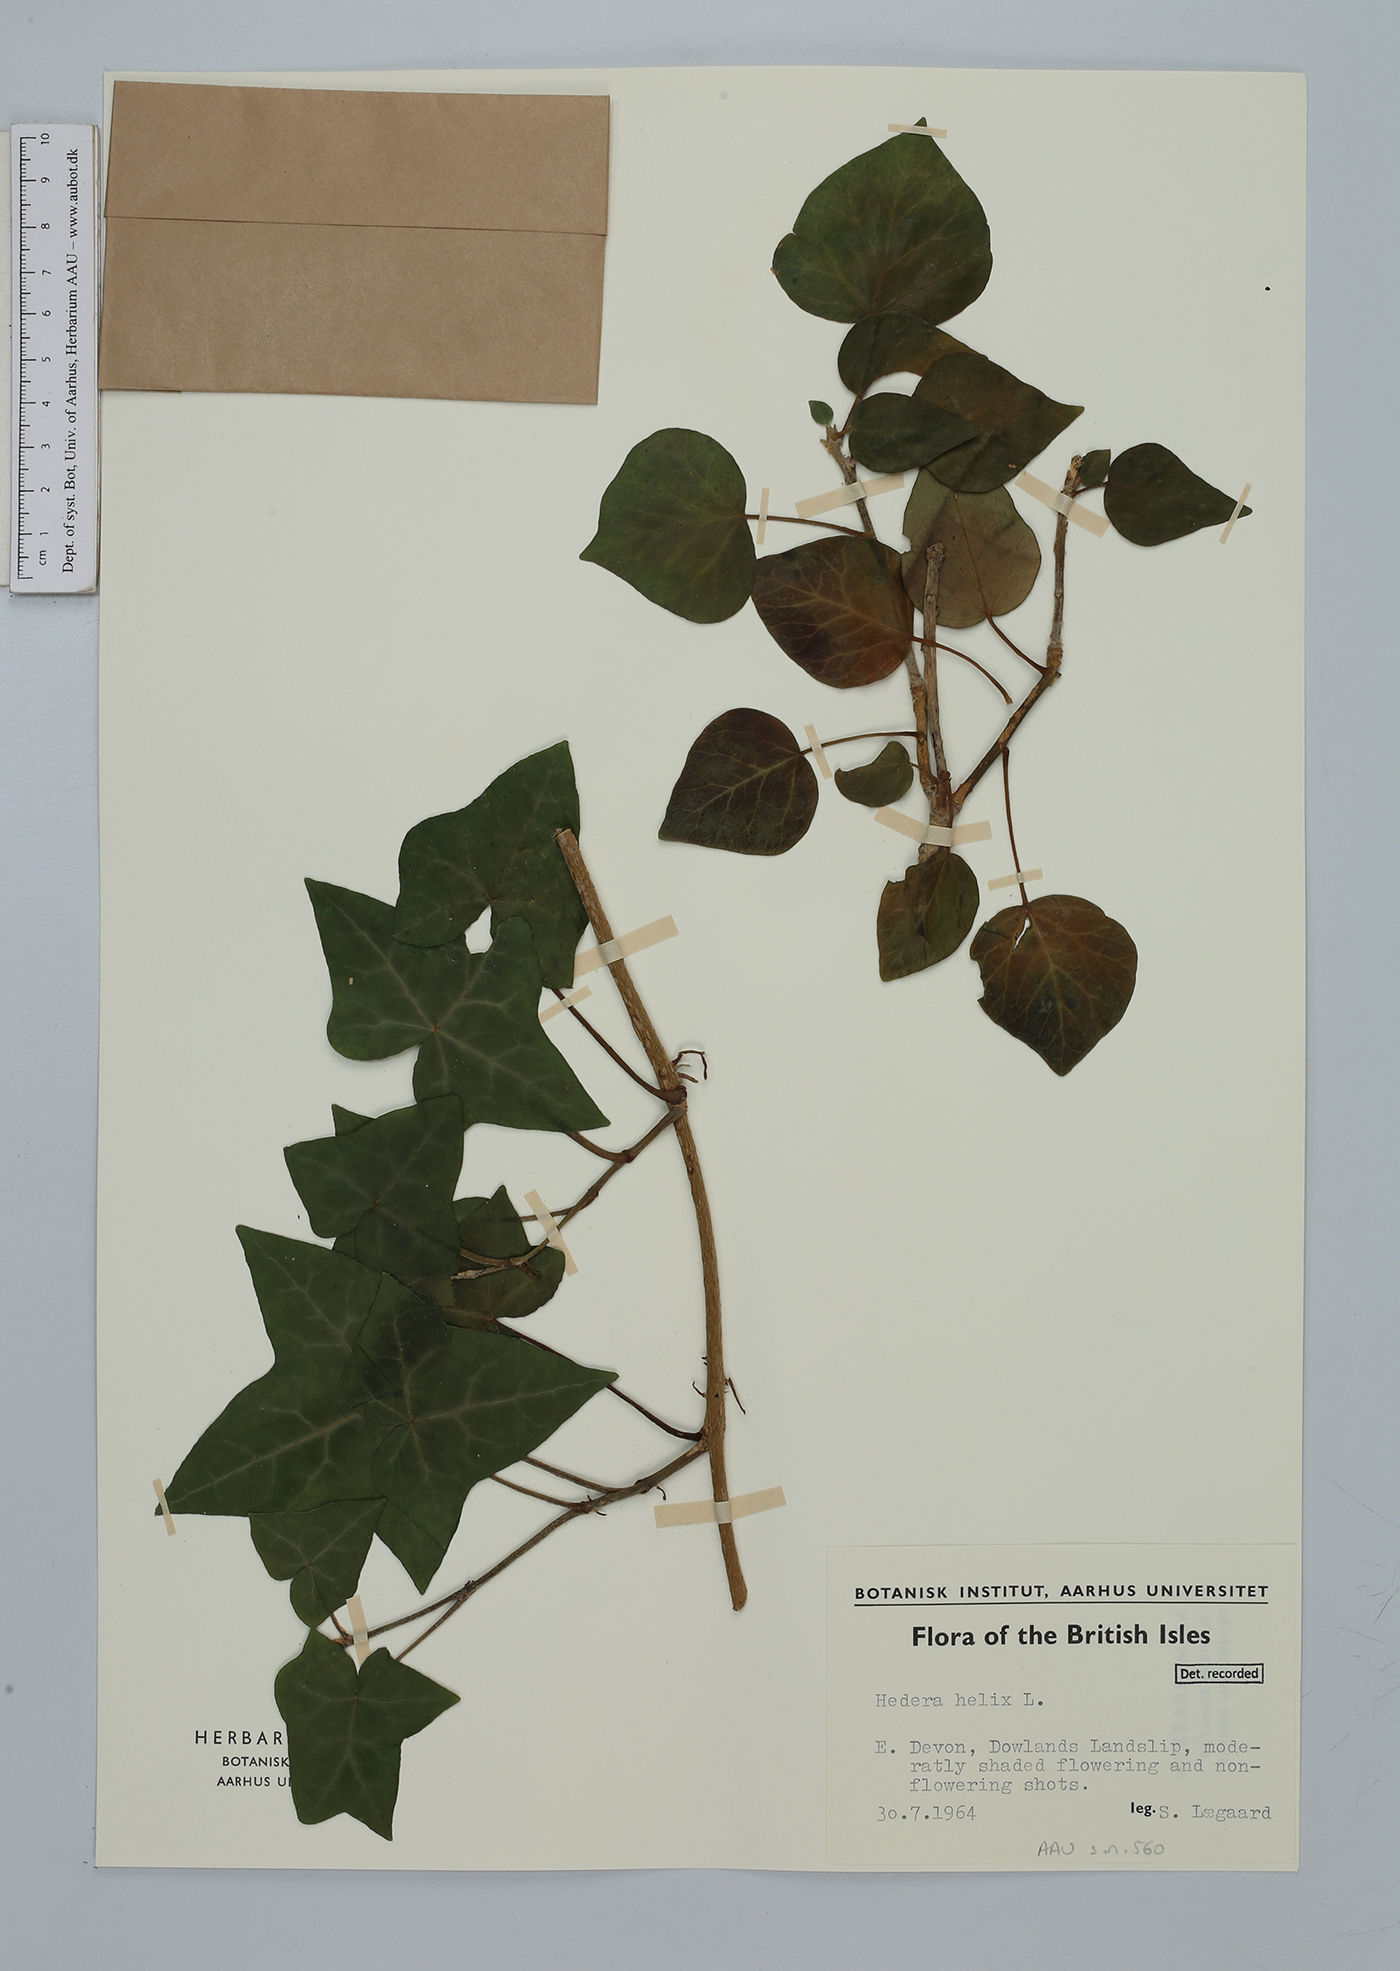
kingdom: Plantae
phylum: Tracheophyta
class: Magnoliopsida
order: Apiales
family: Araliaceae
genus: Hedera
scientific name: Hedera helix
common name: Ivy
